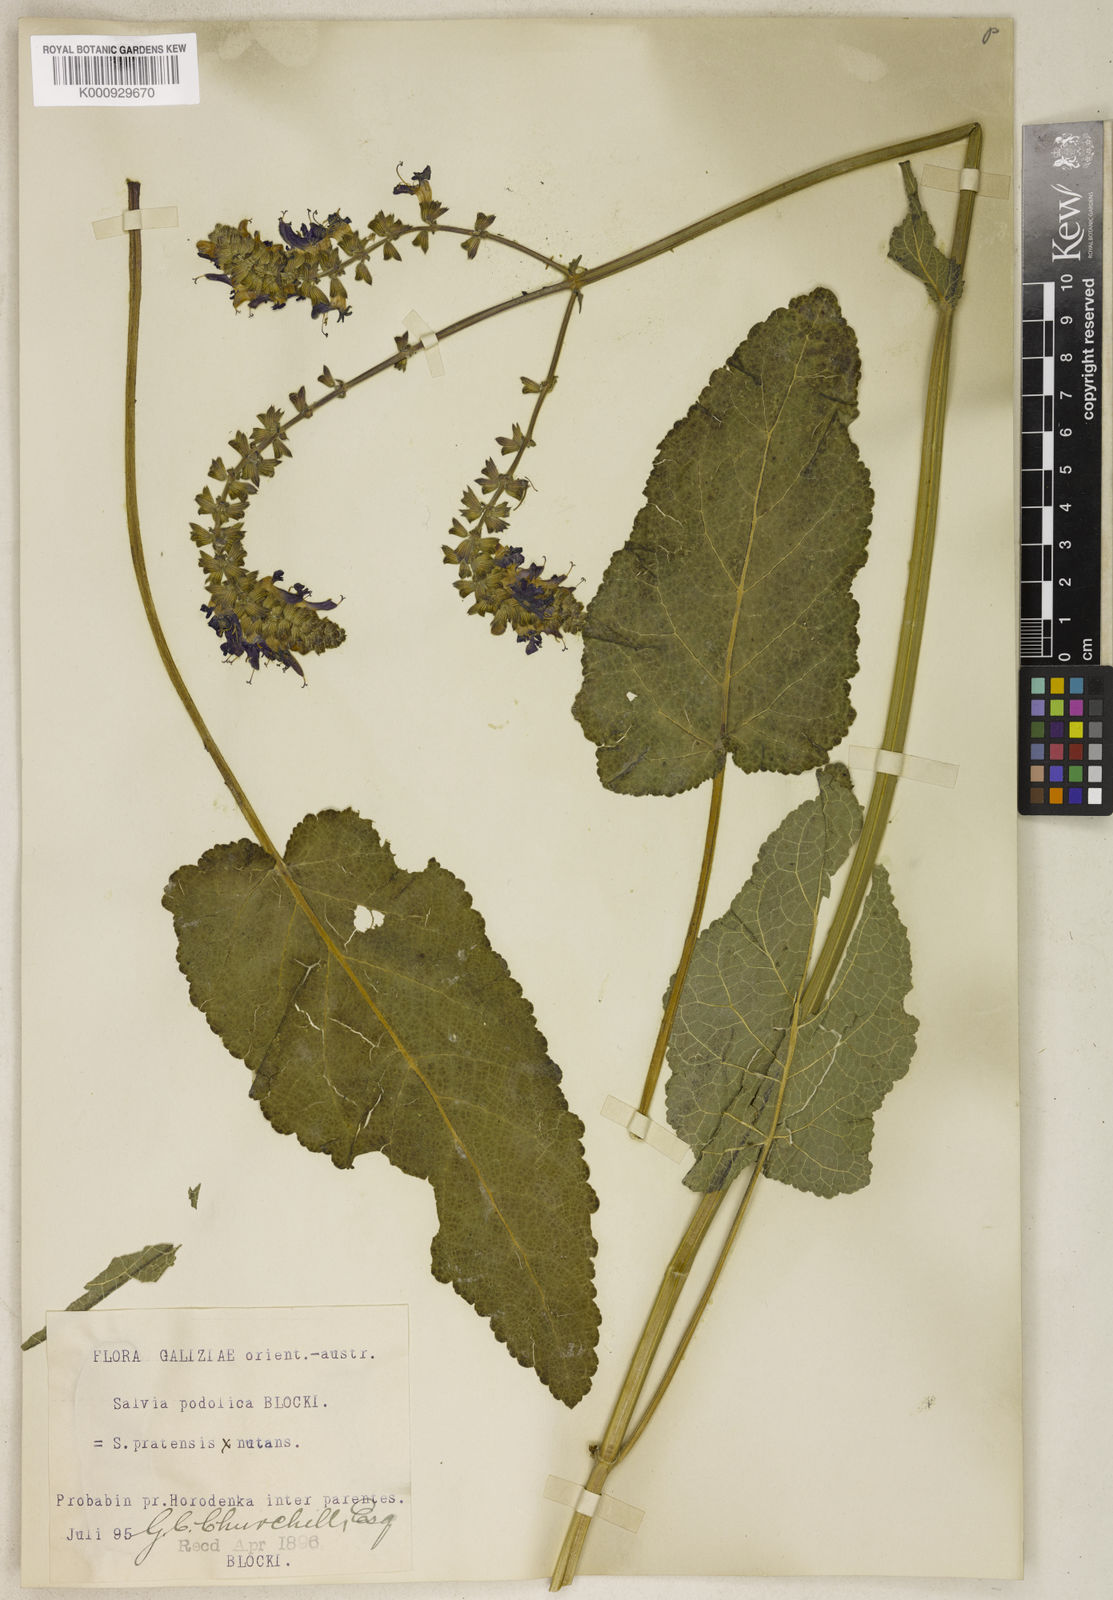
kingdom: Plantae
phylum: Tracheophyta
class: Magnoliopsida
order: Lamiales
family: Lamiaceae
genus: Salvia
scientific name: Salvia nutans
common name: Nodding sage
